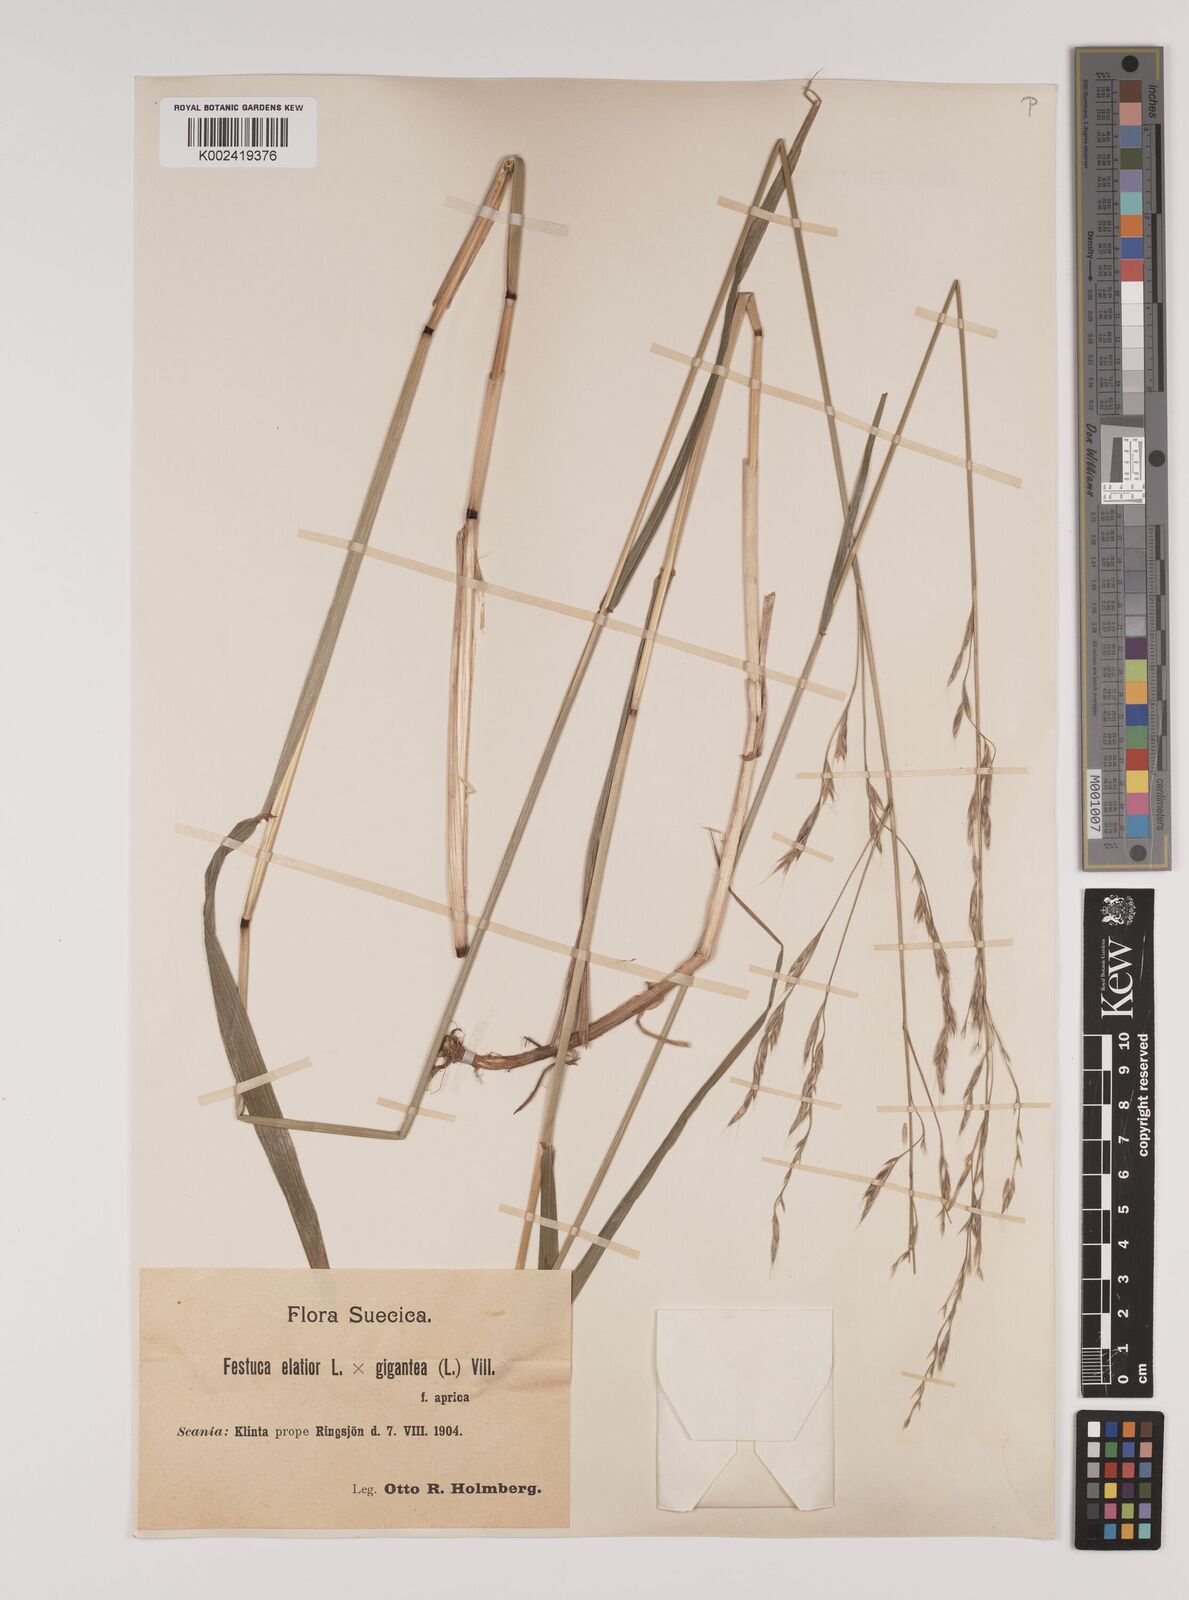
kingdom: Plantae
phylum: Tracheophyta
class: Liliopsida
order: Poales
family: Poaceae
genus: Lolium
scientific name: Lolium giganteum
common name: Giant fescue
